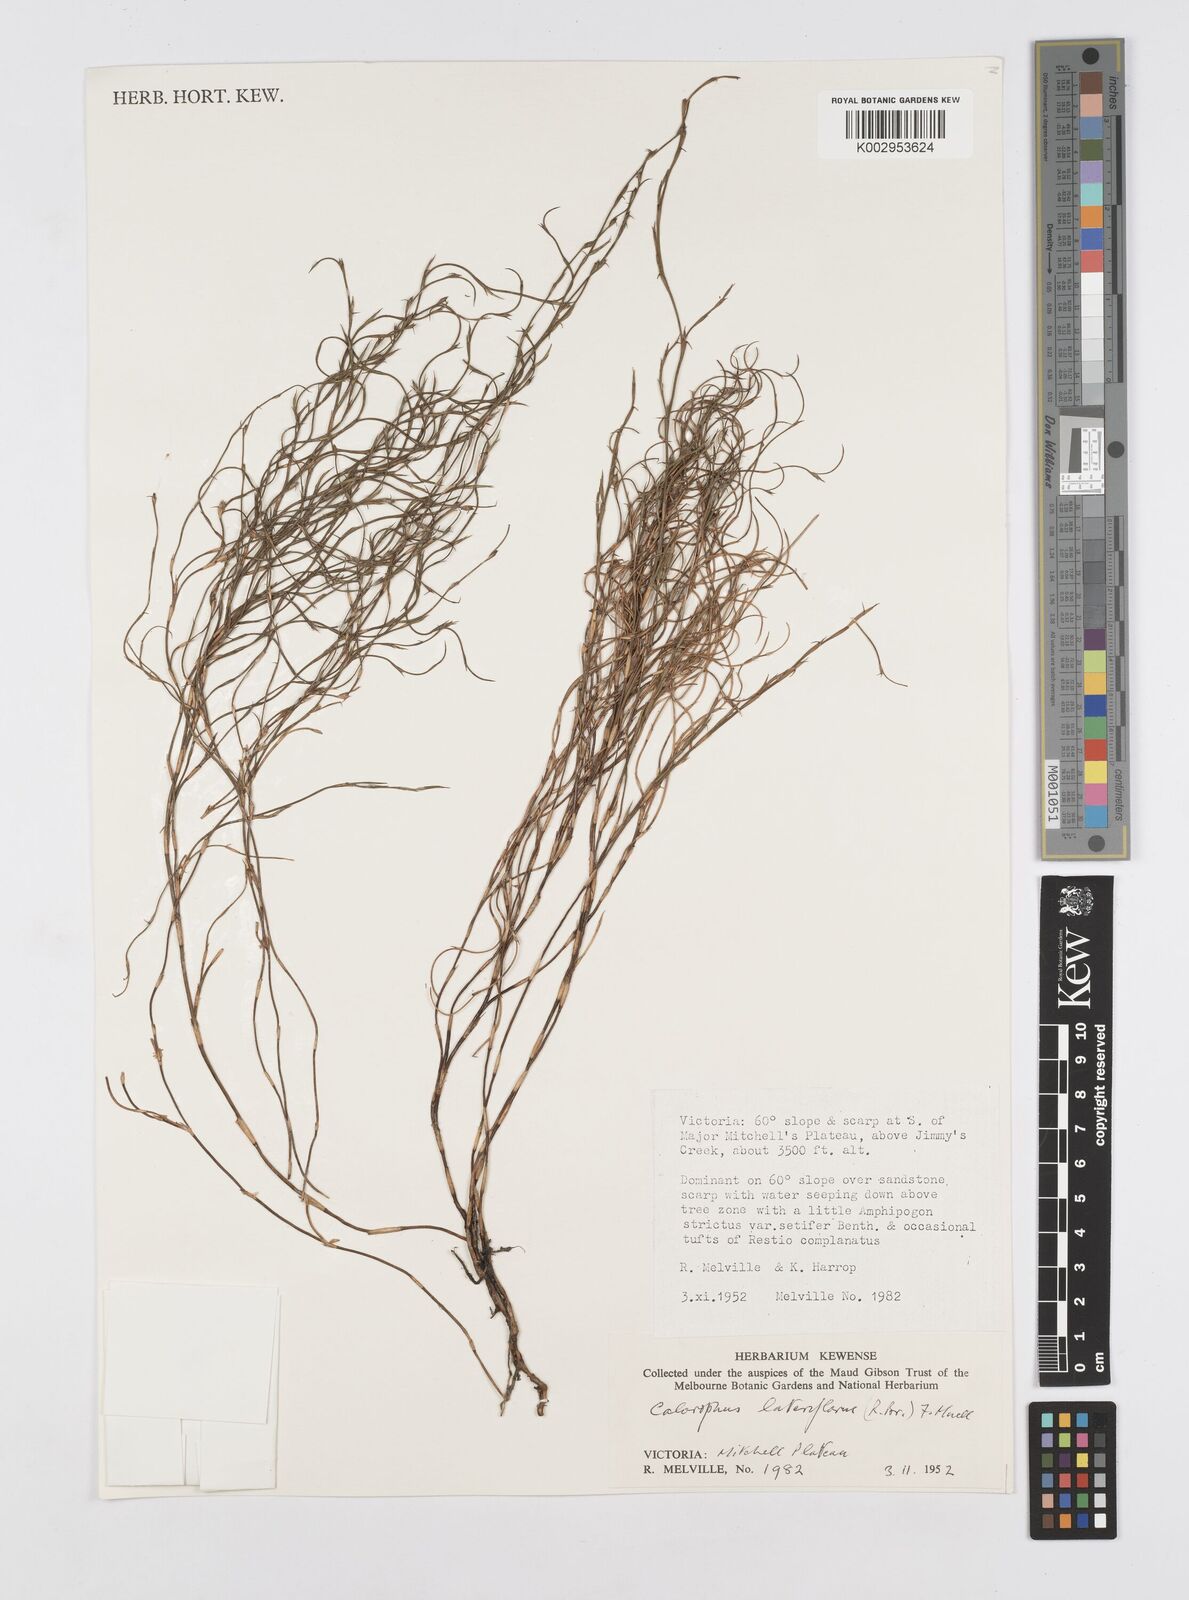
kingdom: Plantae
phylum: Tracheophyta
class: Liliopsida
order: Poales
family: Restionaceae
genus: Empodisma
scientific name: Empodisma minus
